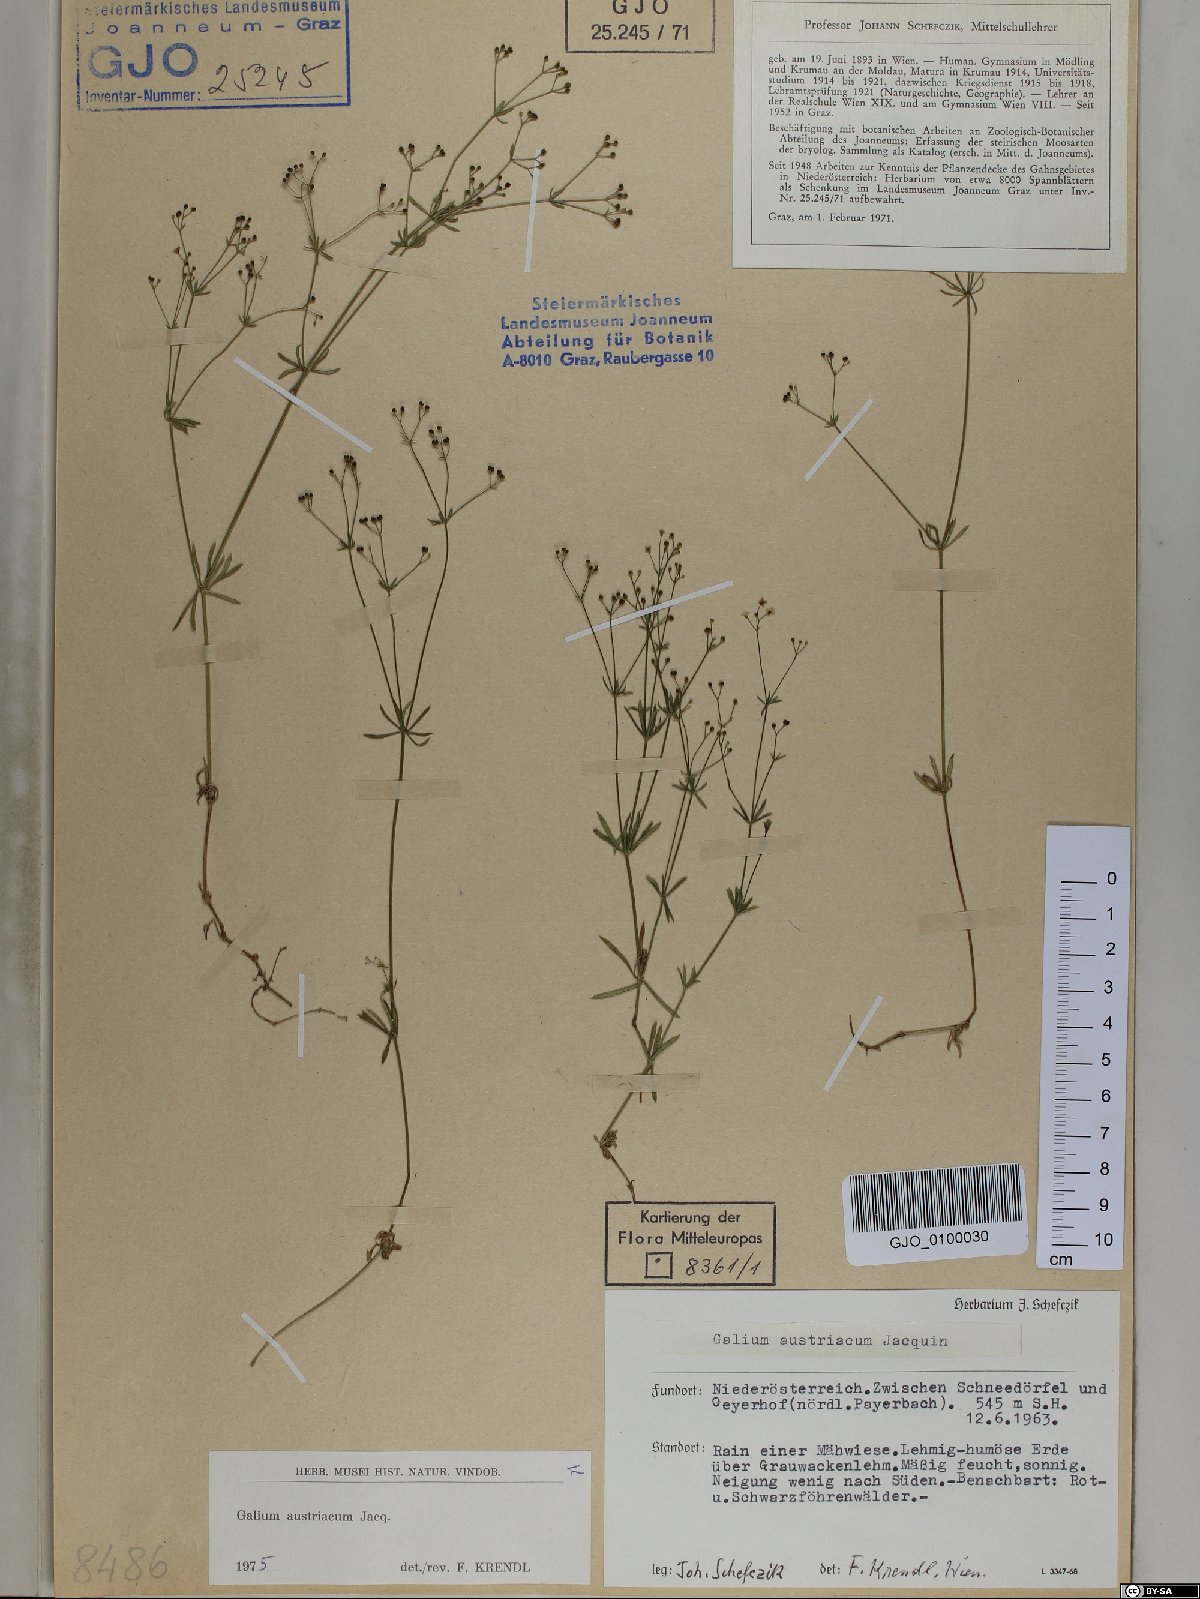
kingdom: Plantae
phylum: Tracheophyta
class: Magnoliopsida
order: Gentianales
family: Rubiaceae
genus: Galium
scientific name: Galium austriacum
